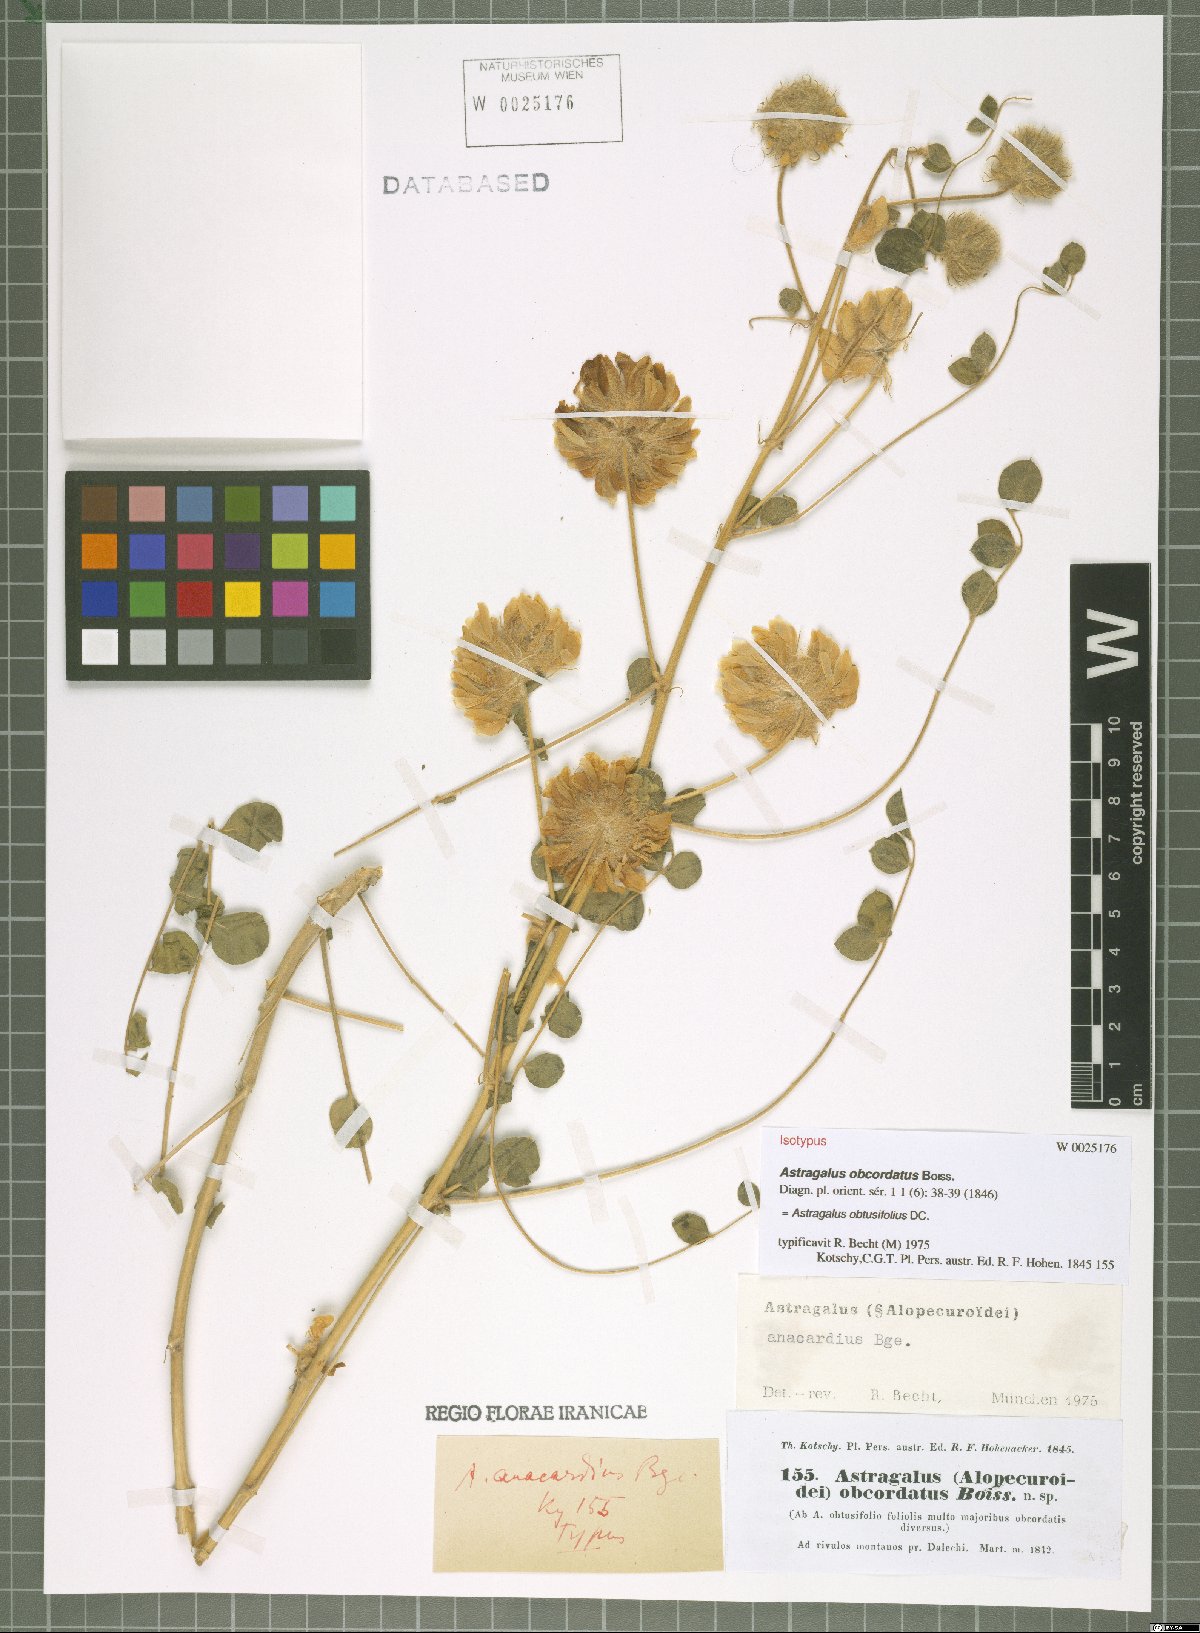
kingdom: Plantae
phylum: Tracheophyta
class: Magnoliopsida
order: Fabales
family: Fabaceae
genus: Astragalus
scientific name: Astragalus obtusifolius
